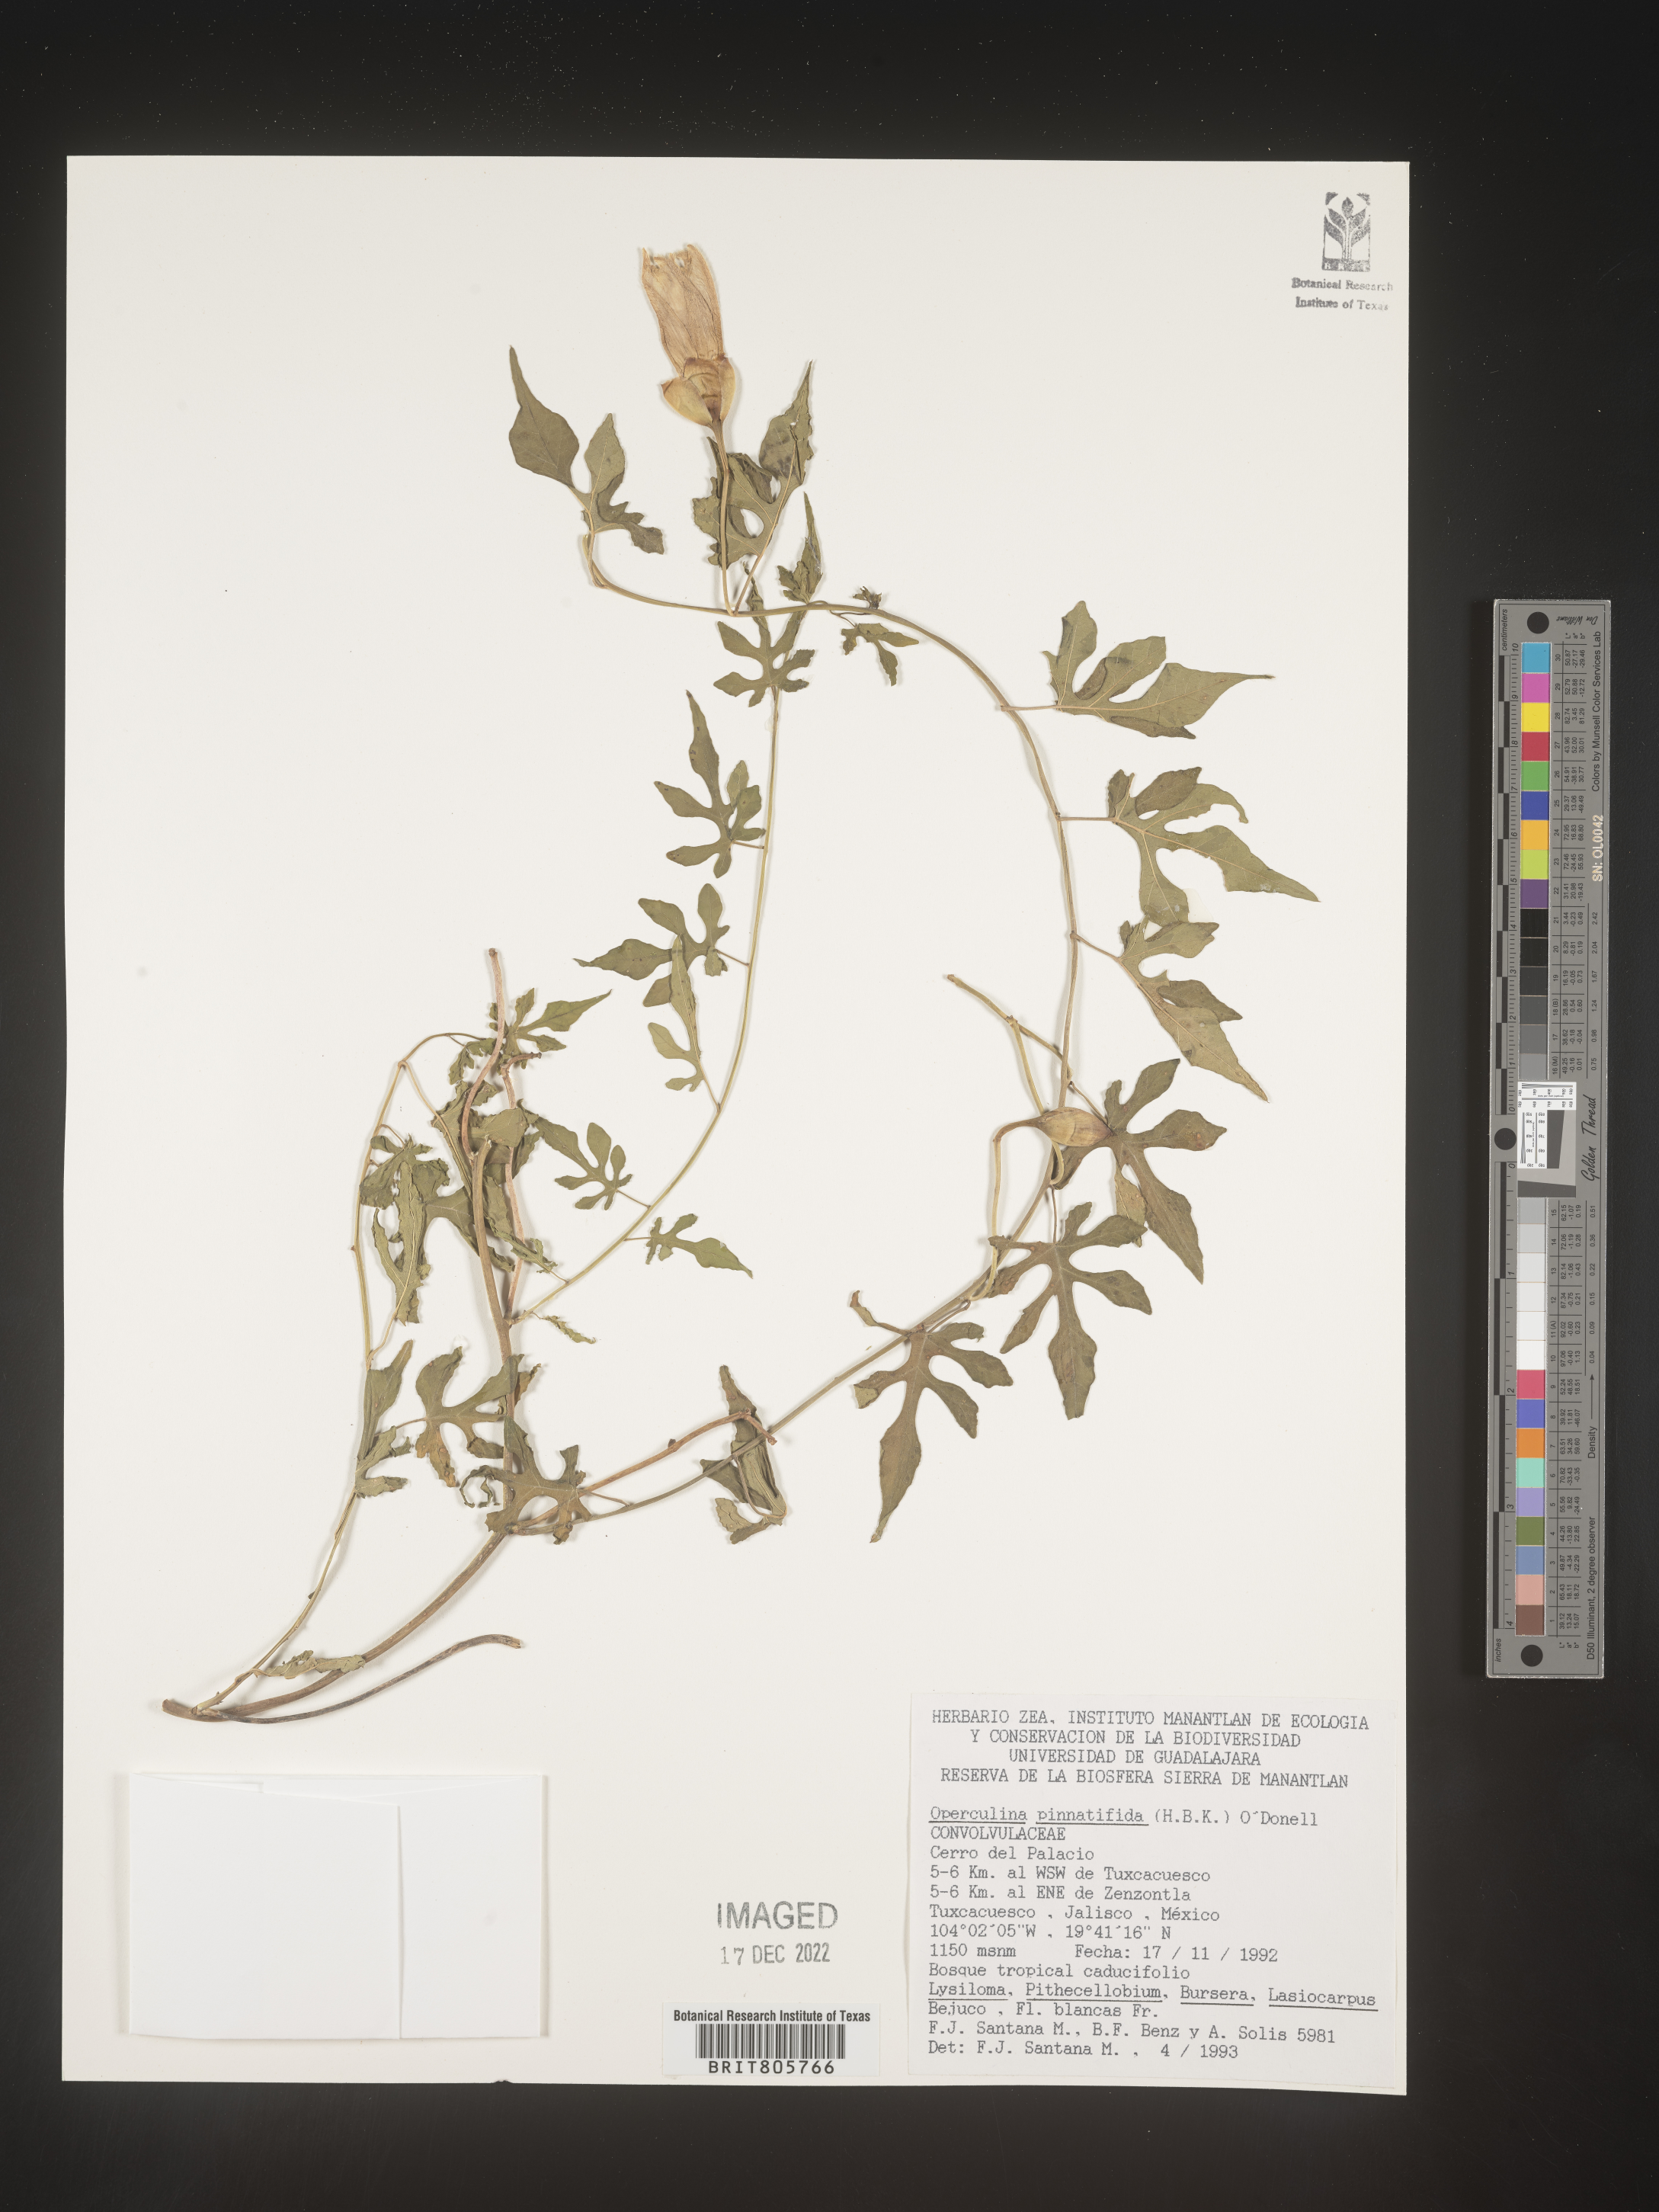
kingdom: Plantae
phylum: Tracheophyta
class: Magnoliopsida
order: Solanales
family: Convolvulaceae
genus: Operculina
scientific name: Operculina
